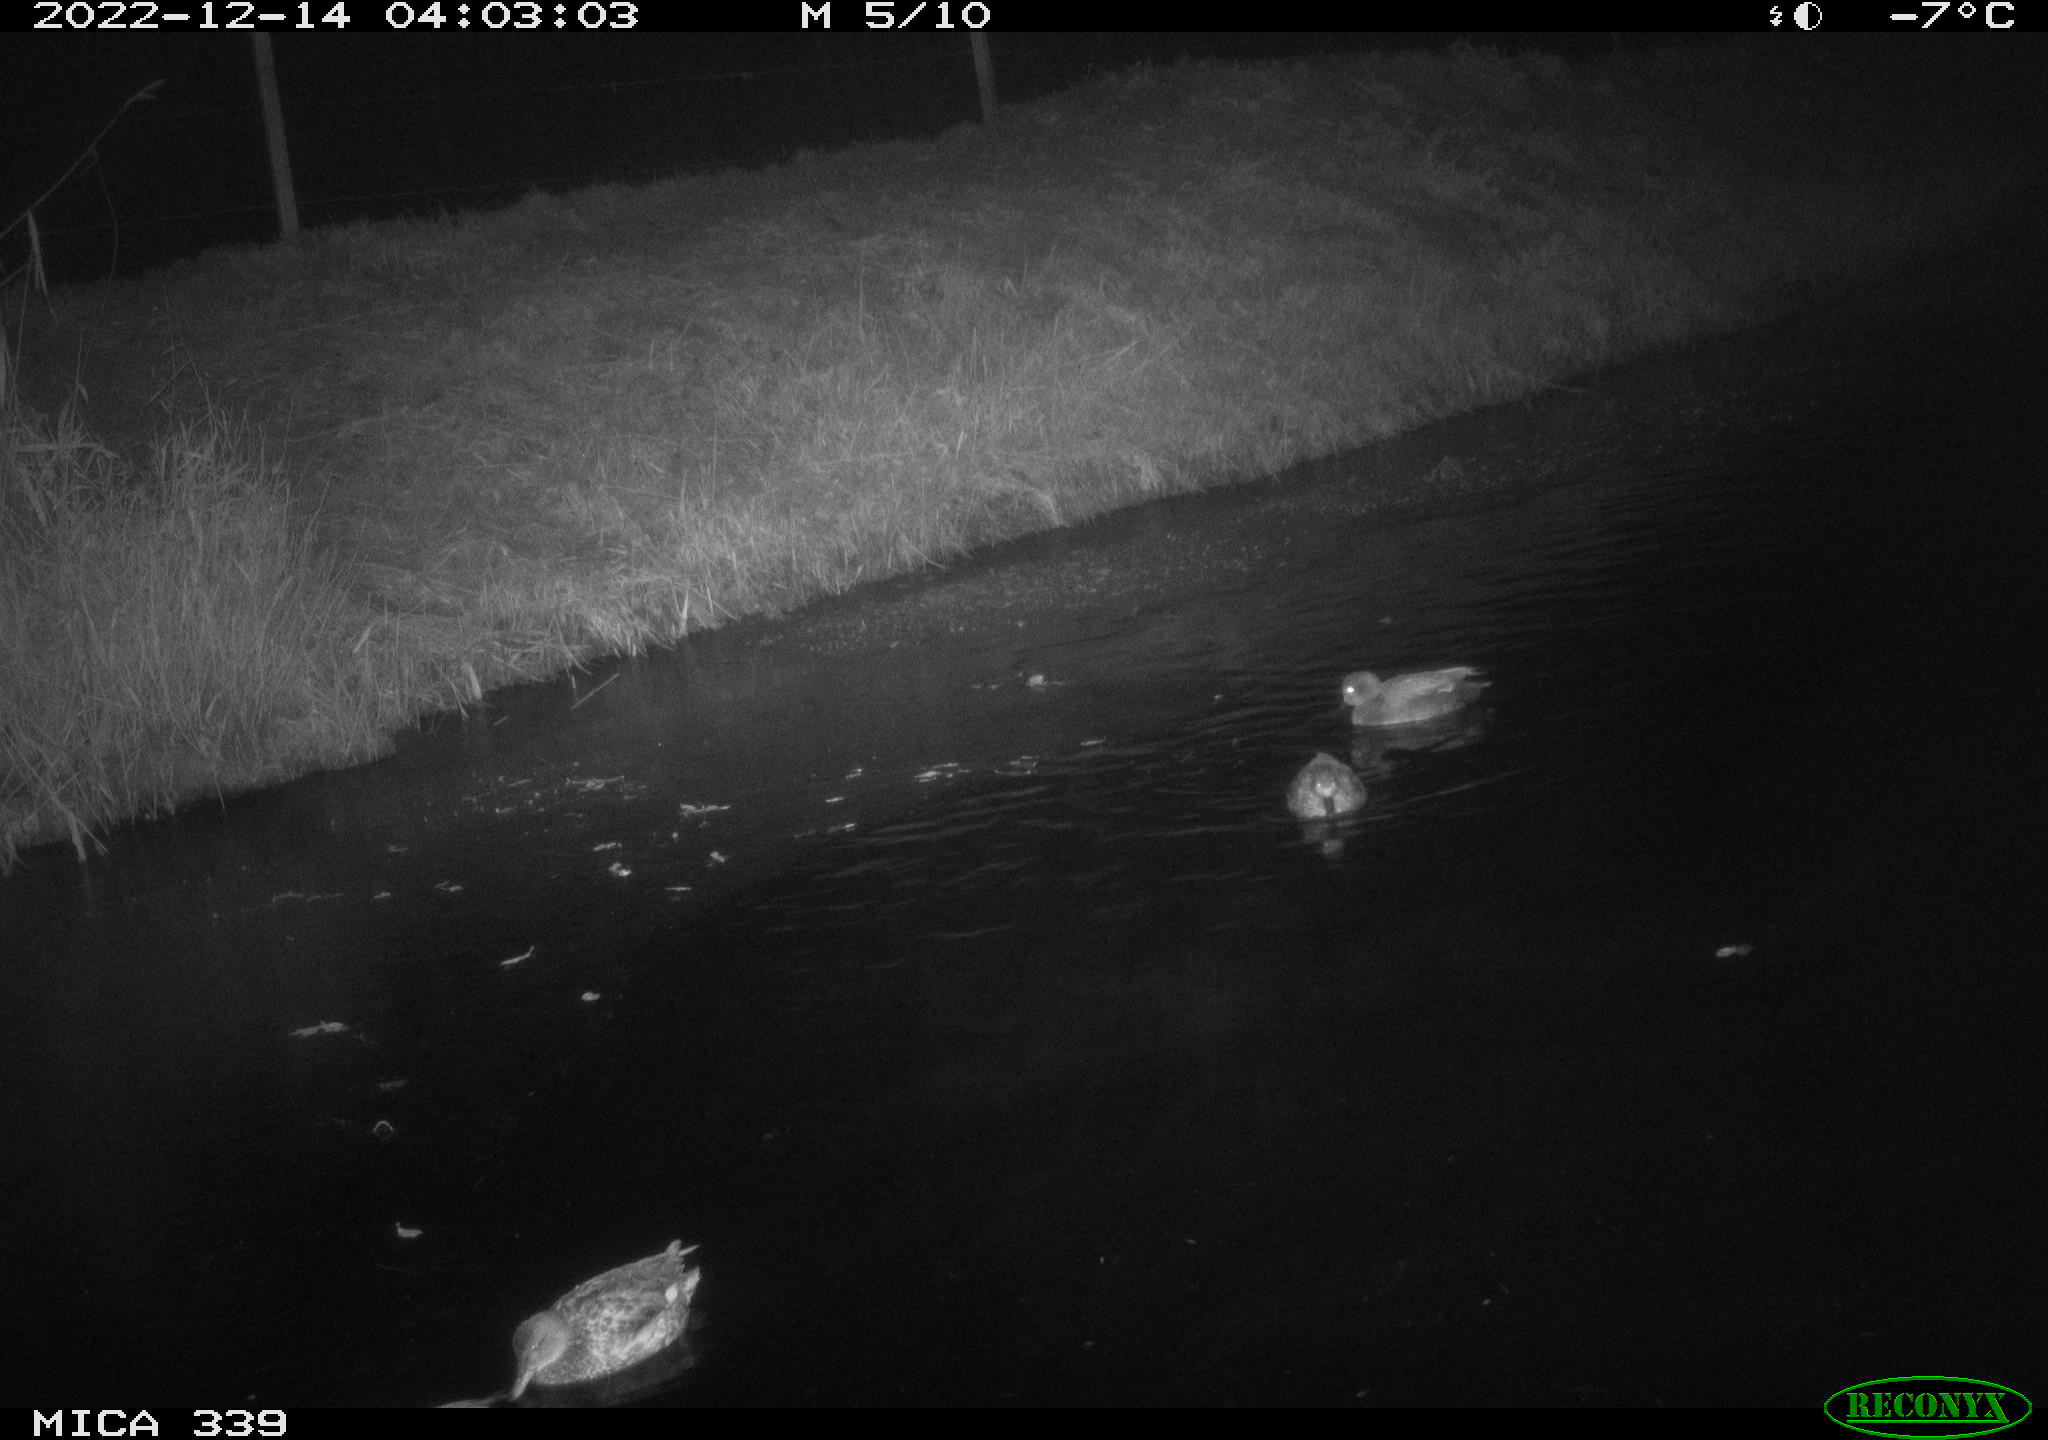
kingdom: Animalia
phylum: Chordata
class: Aves
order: Anseriformes
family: Anatidae
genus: Anas
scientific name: Anas
